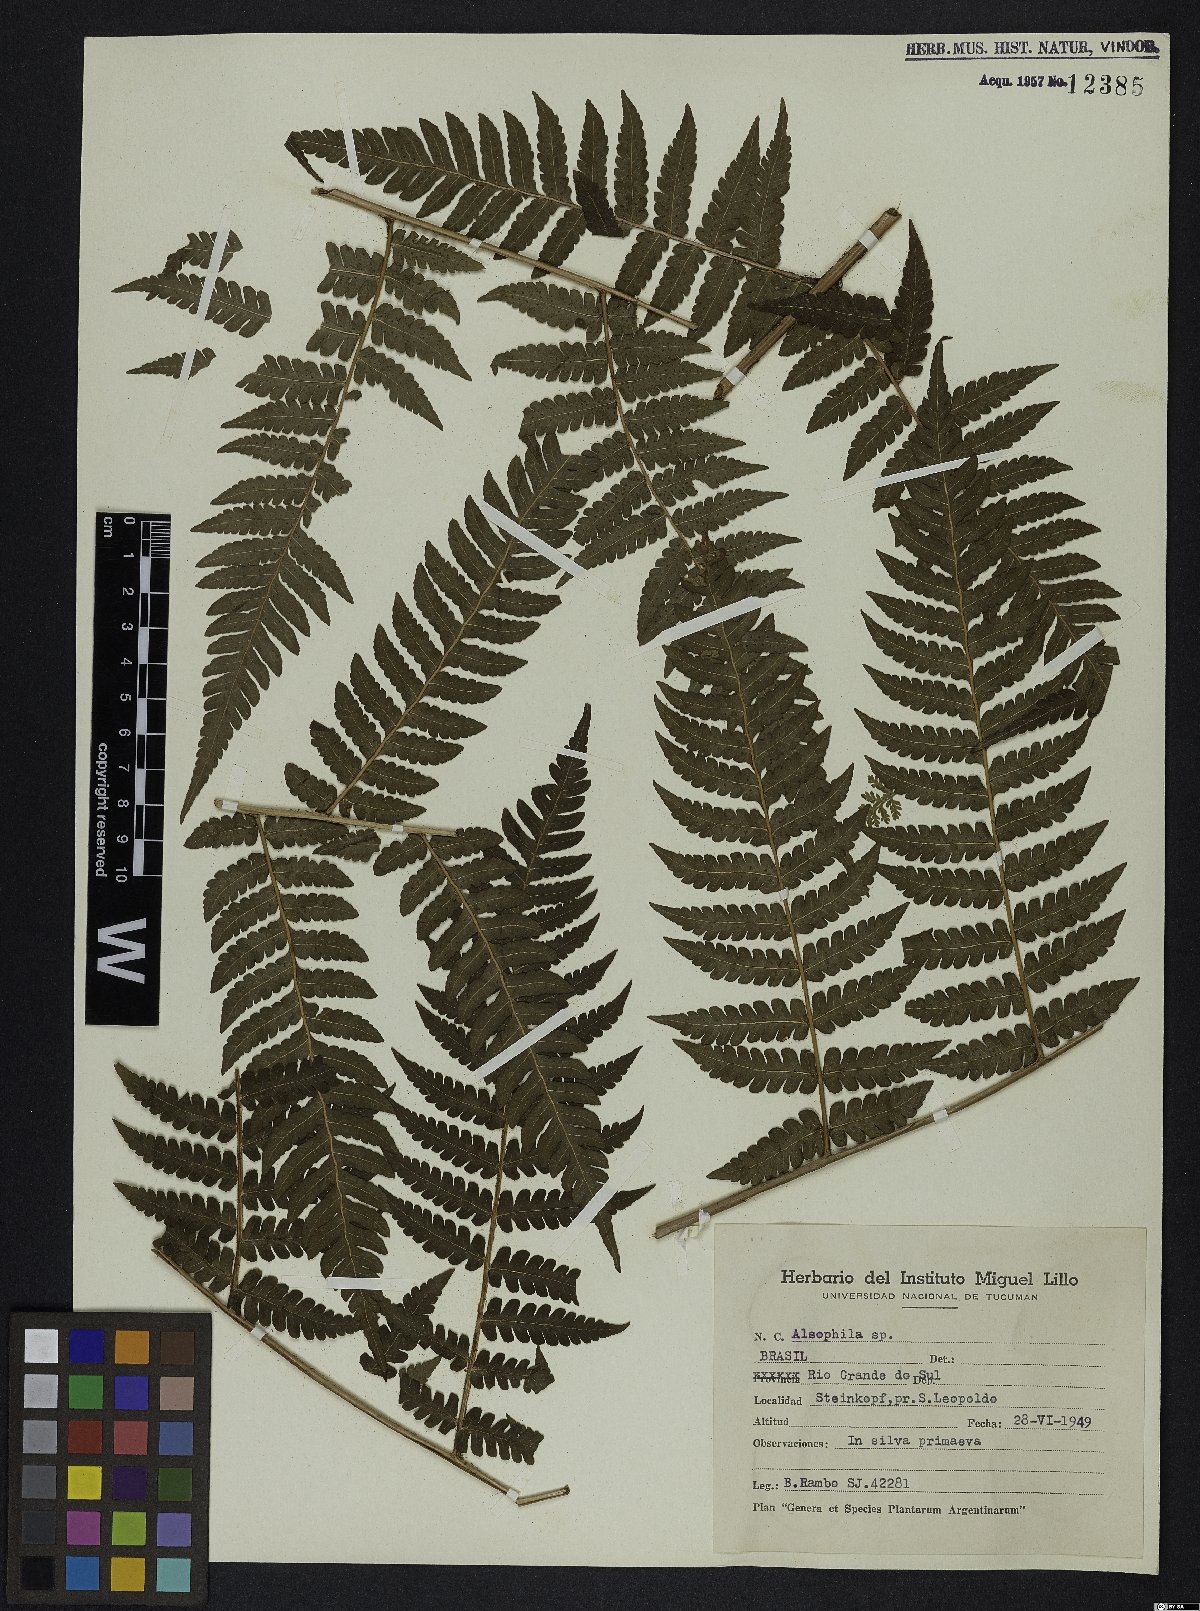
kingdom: Plantae
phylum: Tracheophyta
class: Polypodiopsida
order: Cyatheales
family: Cyatheaceae
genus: Alsophila
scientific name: Alsophila
